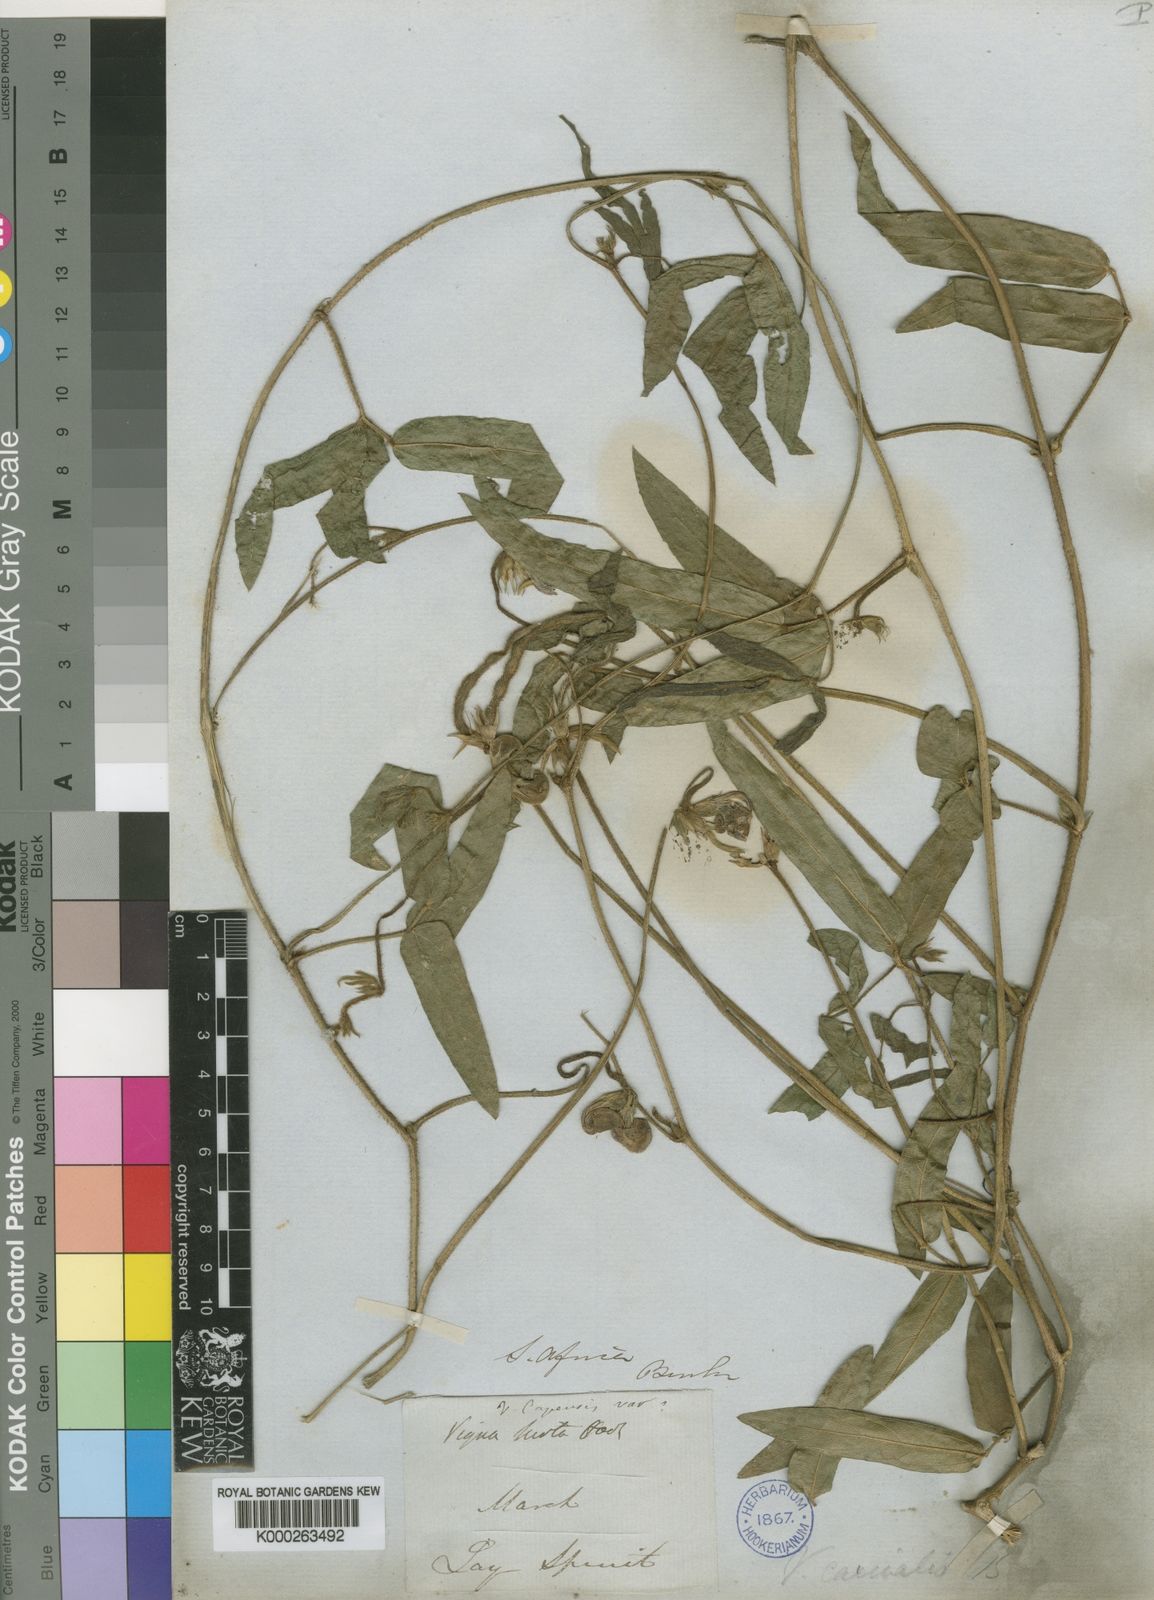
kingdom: Plantae
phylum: Tracheophyta
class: Magnoliopsida
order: Fabales
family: Fabaceae
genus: Vigna
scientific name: Vigna vexillata
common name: Zombi pea
